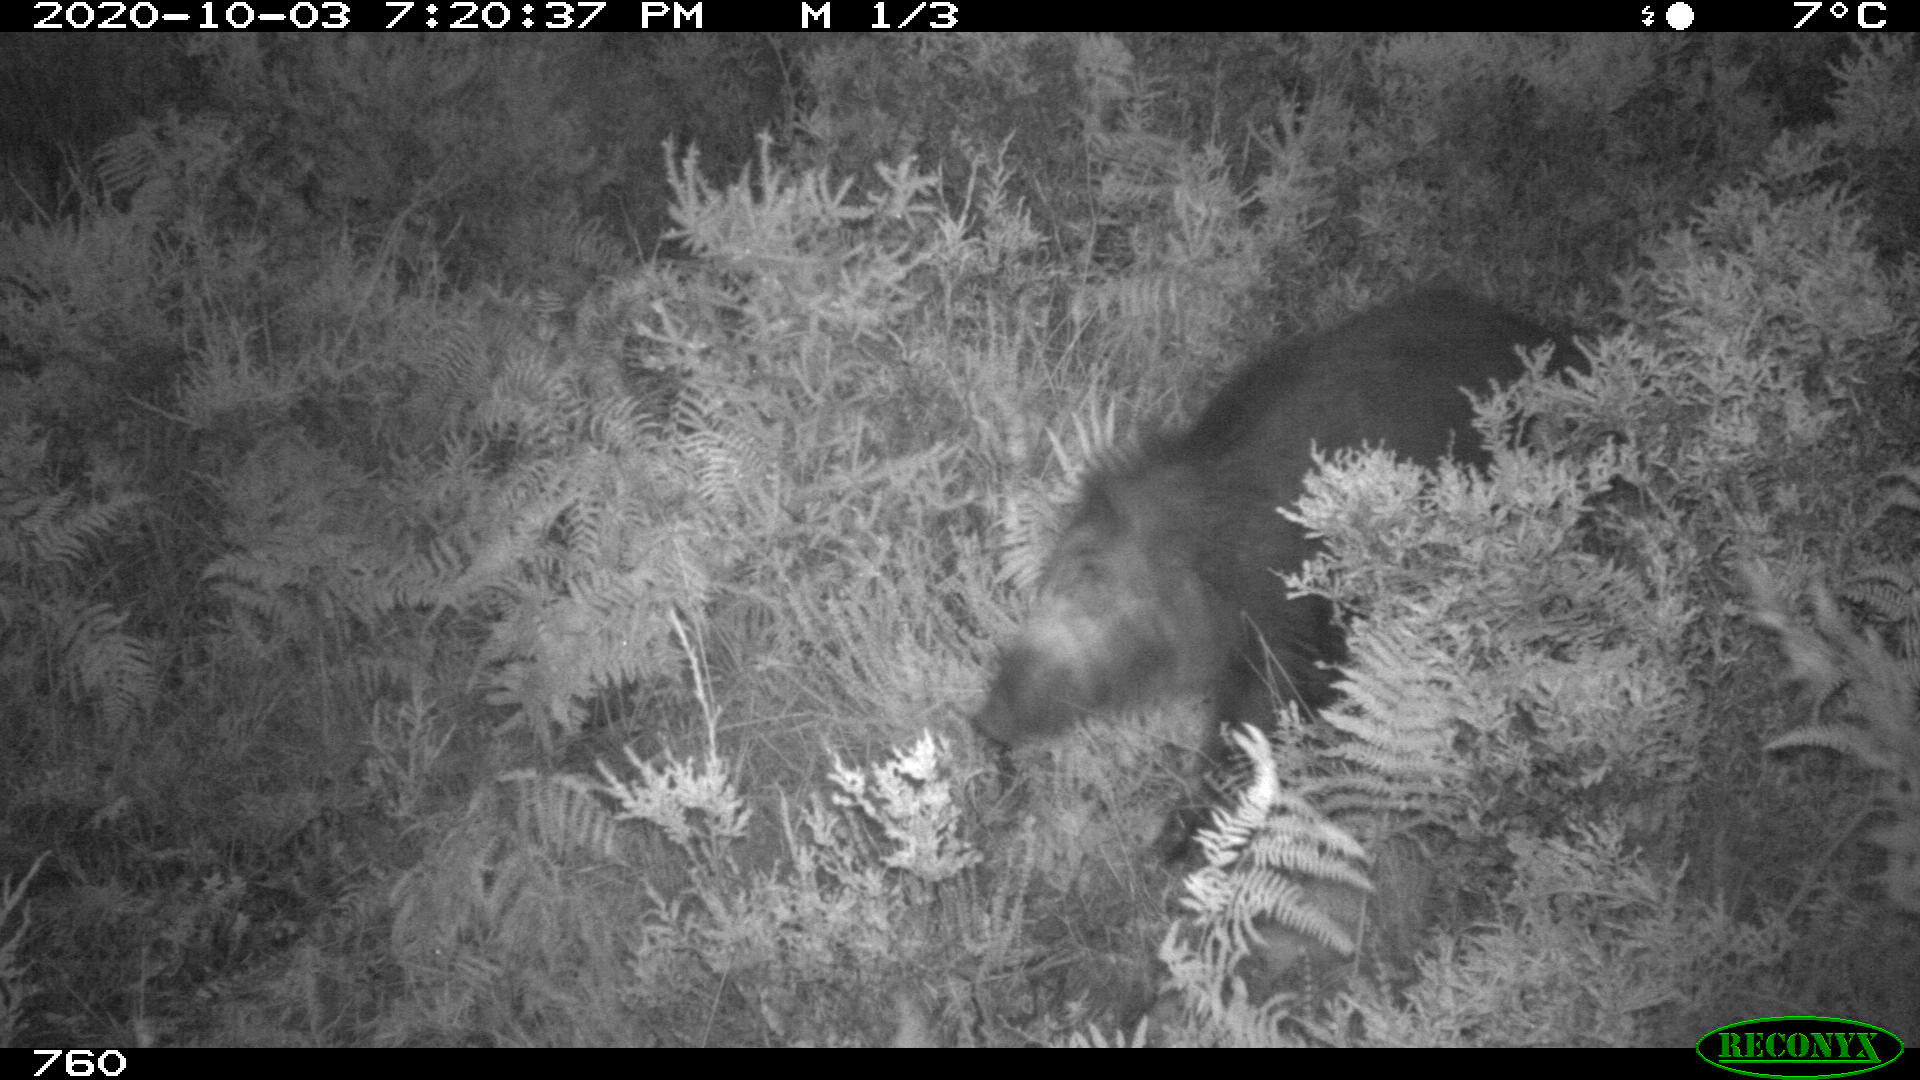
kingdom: Animalia
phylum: Chordata
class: Mammalia
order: Artiodactyla
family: Suidae
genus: Sus
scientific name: Sus scrofa
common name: Wild boar
